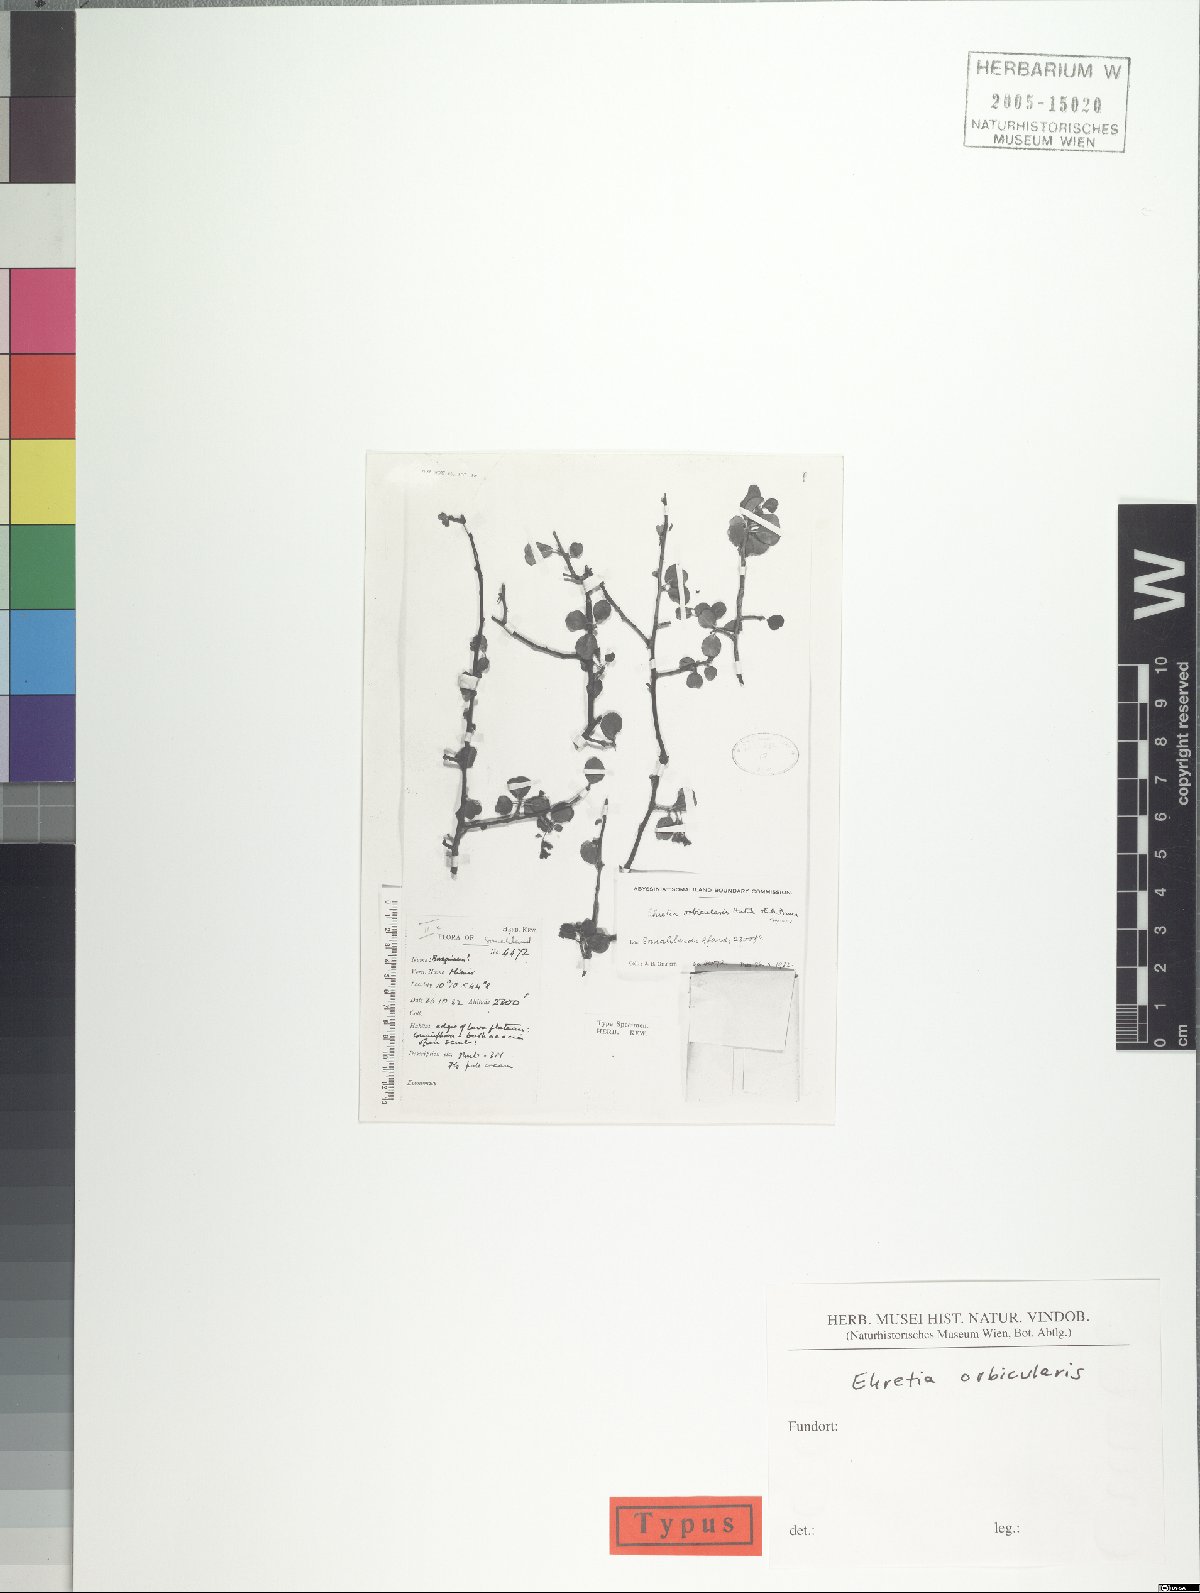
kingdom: Plantae
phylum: Tracheophyta
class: Magnoliopsida
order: Boraginales
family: Ehretiaceae
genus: Bourreria
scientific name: Bourreria orbicularis
